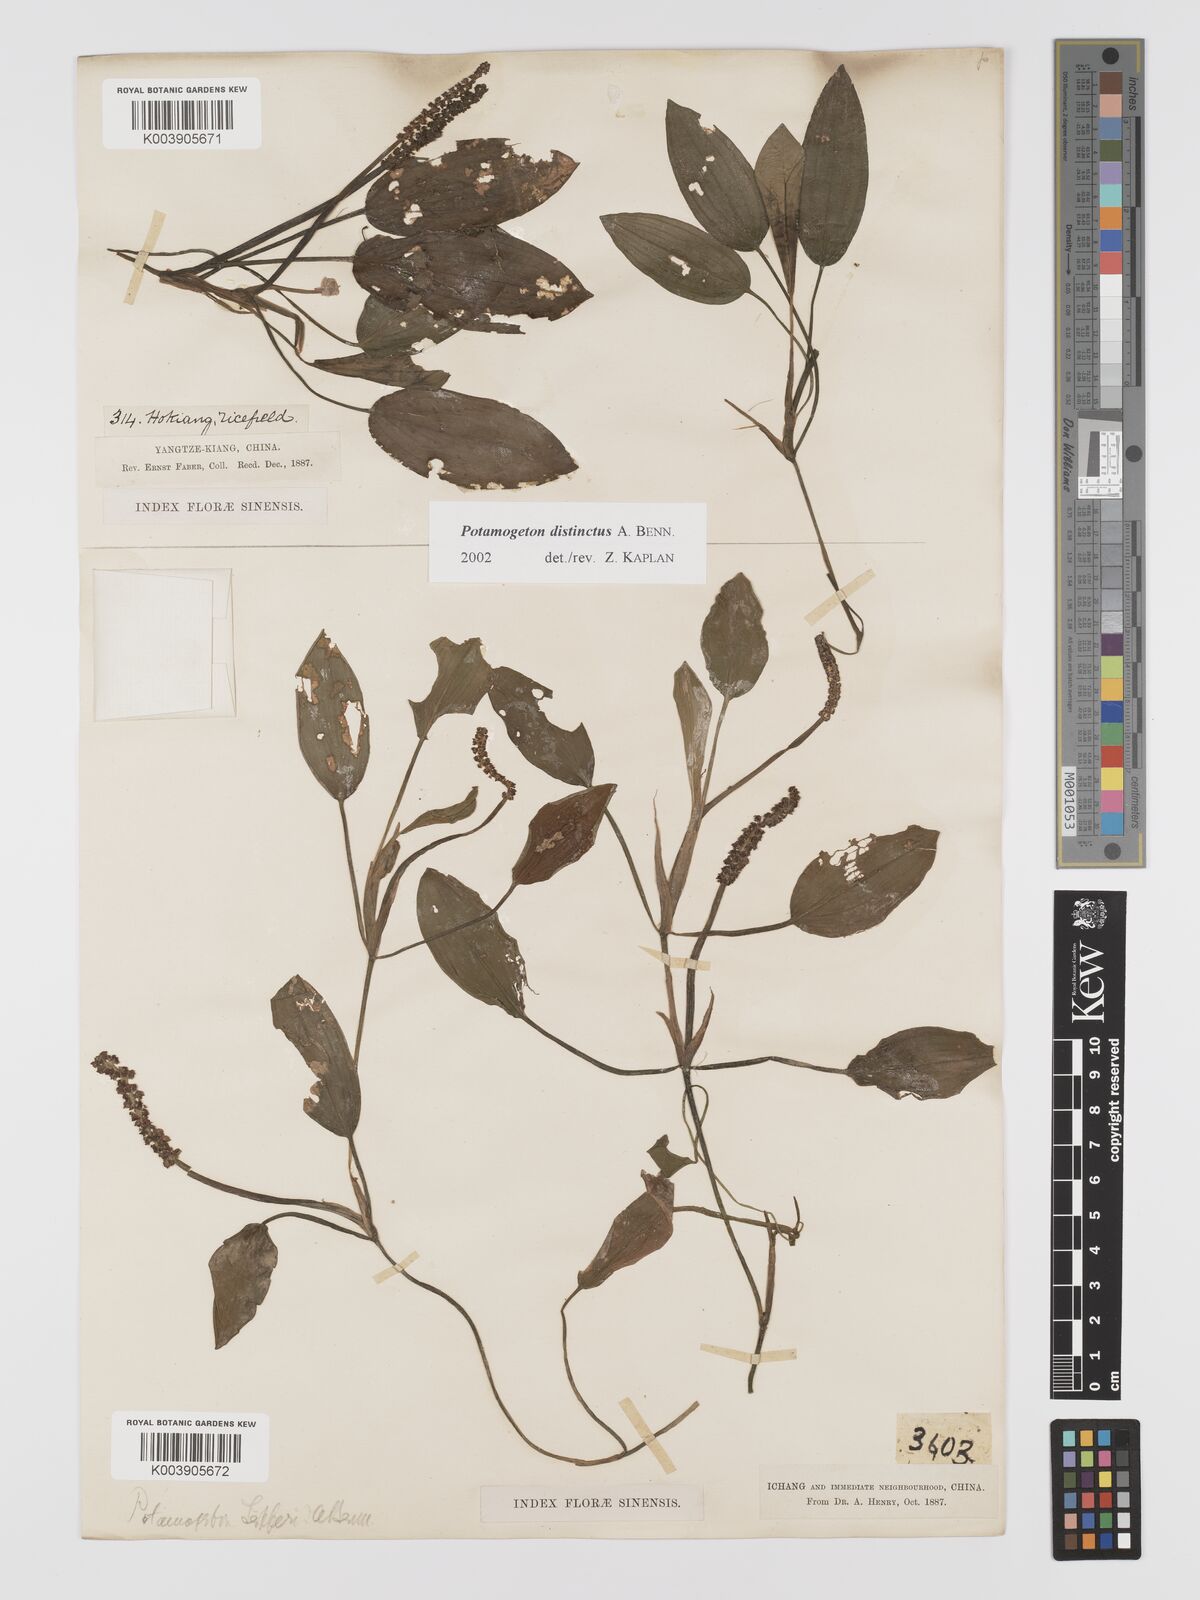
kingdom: Plantae
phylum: Tracheophyta
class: Liliopsida
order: Alismatales
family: Potamogetonaceae
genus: Potamogeton
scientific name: Potamogeton distinctus
